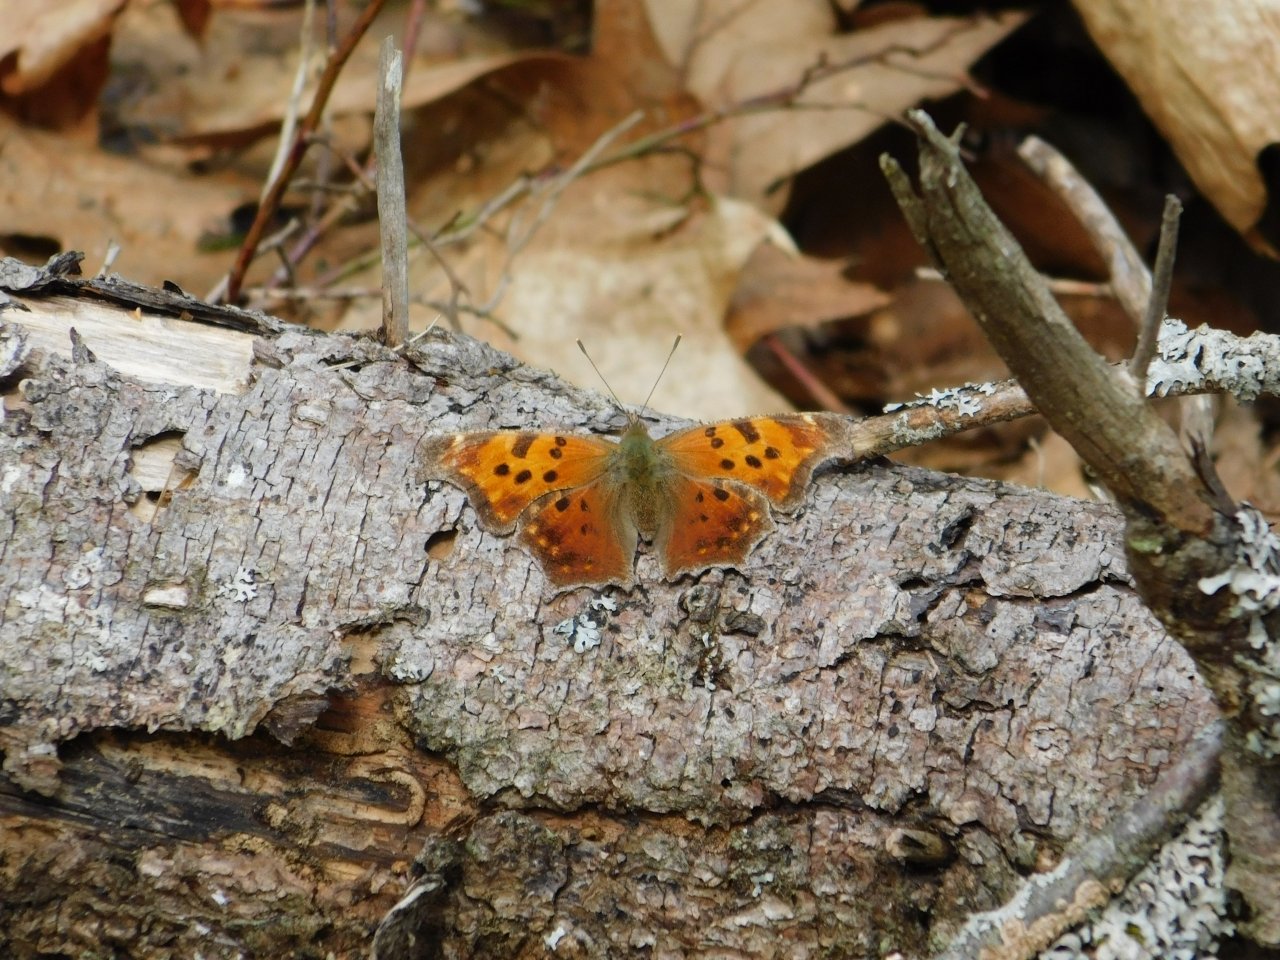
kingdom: Animalia
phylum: Arthropoda
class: Insecta
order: Lepidoptera
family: Nymphalidae
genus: Polygonia
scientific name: Polygonia comma
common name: Eastern Comma
